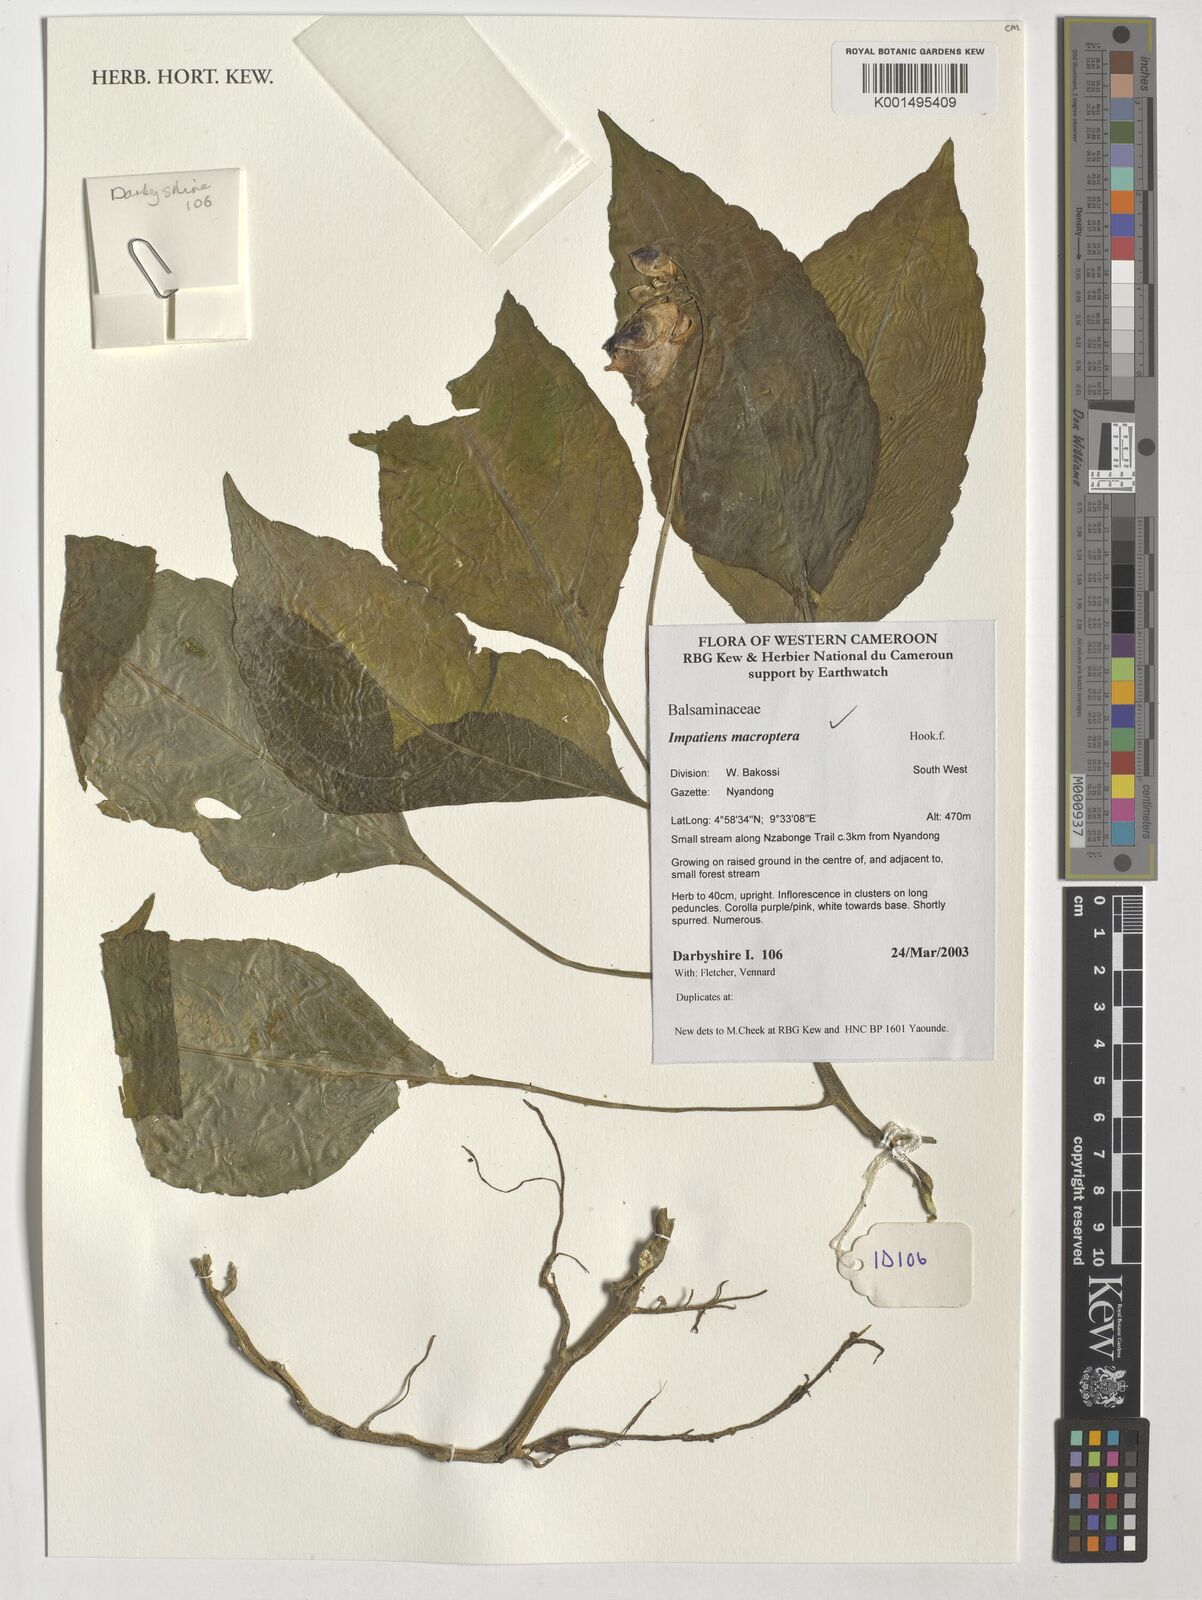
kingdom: Plantae
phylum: Tracheophyta
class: Magnoliopsida
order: Ericales
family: Balsaminaceae
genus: Impatiens
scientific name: Impatiens macroptera
